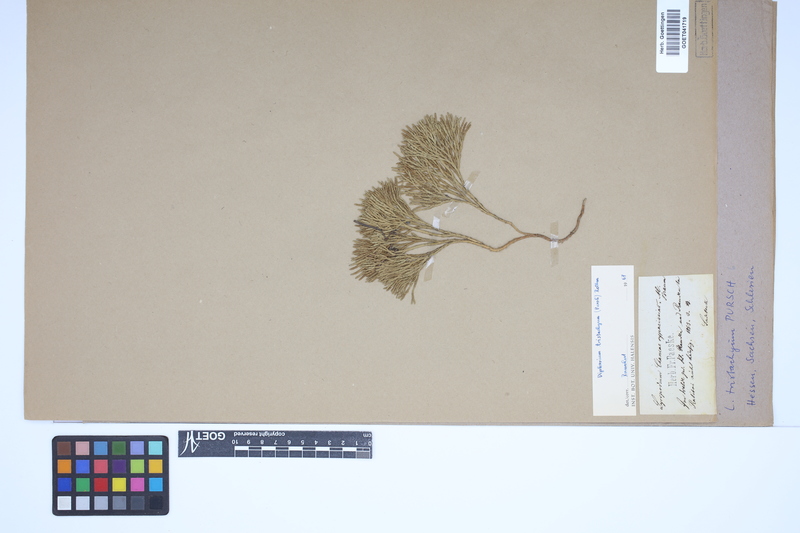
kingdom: Plantae
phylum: Tracheophyta
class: Lycopodiopsida
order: Lycopodiales
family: Lycopodiaceae
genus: Diphasiastrum
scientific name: Diphasiastrum tristachyum
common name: Blue ground-cedar
